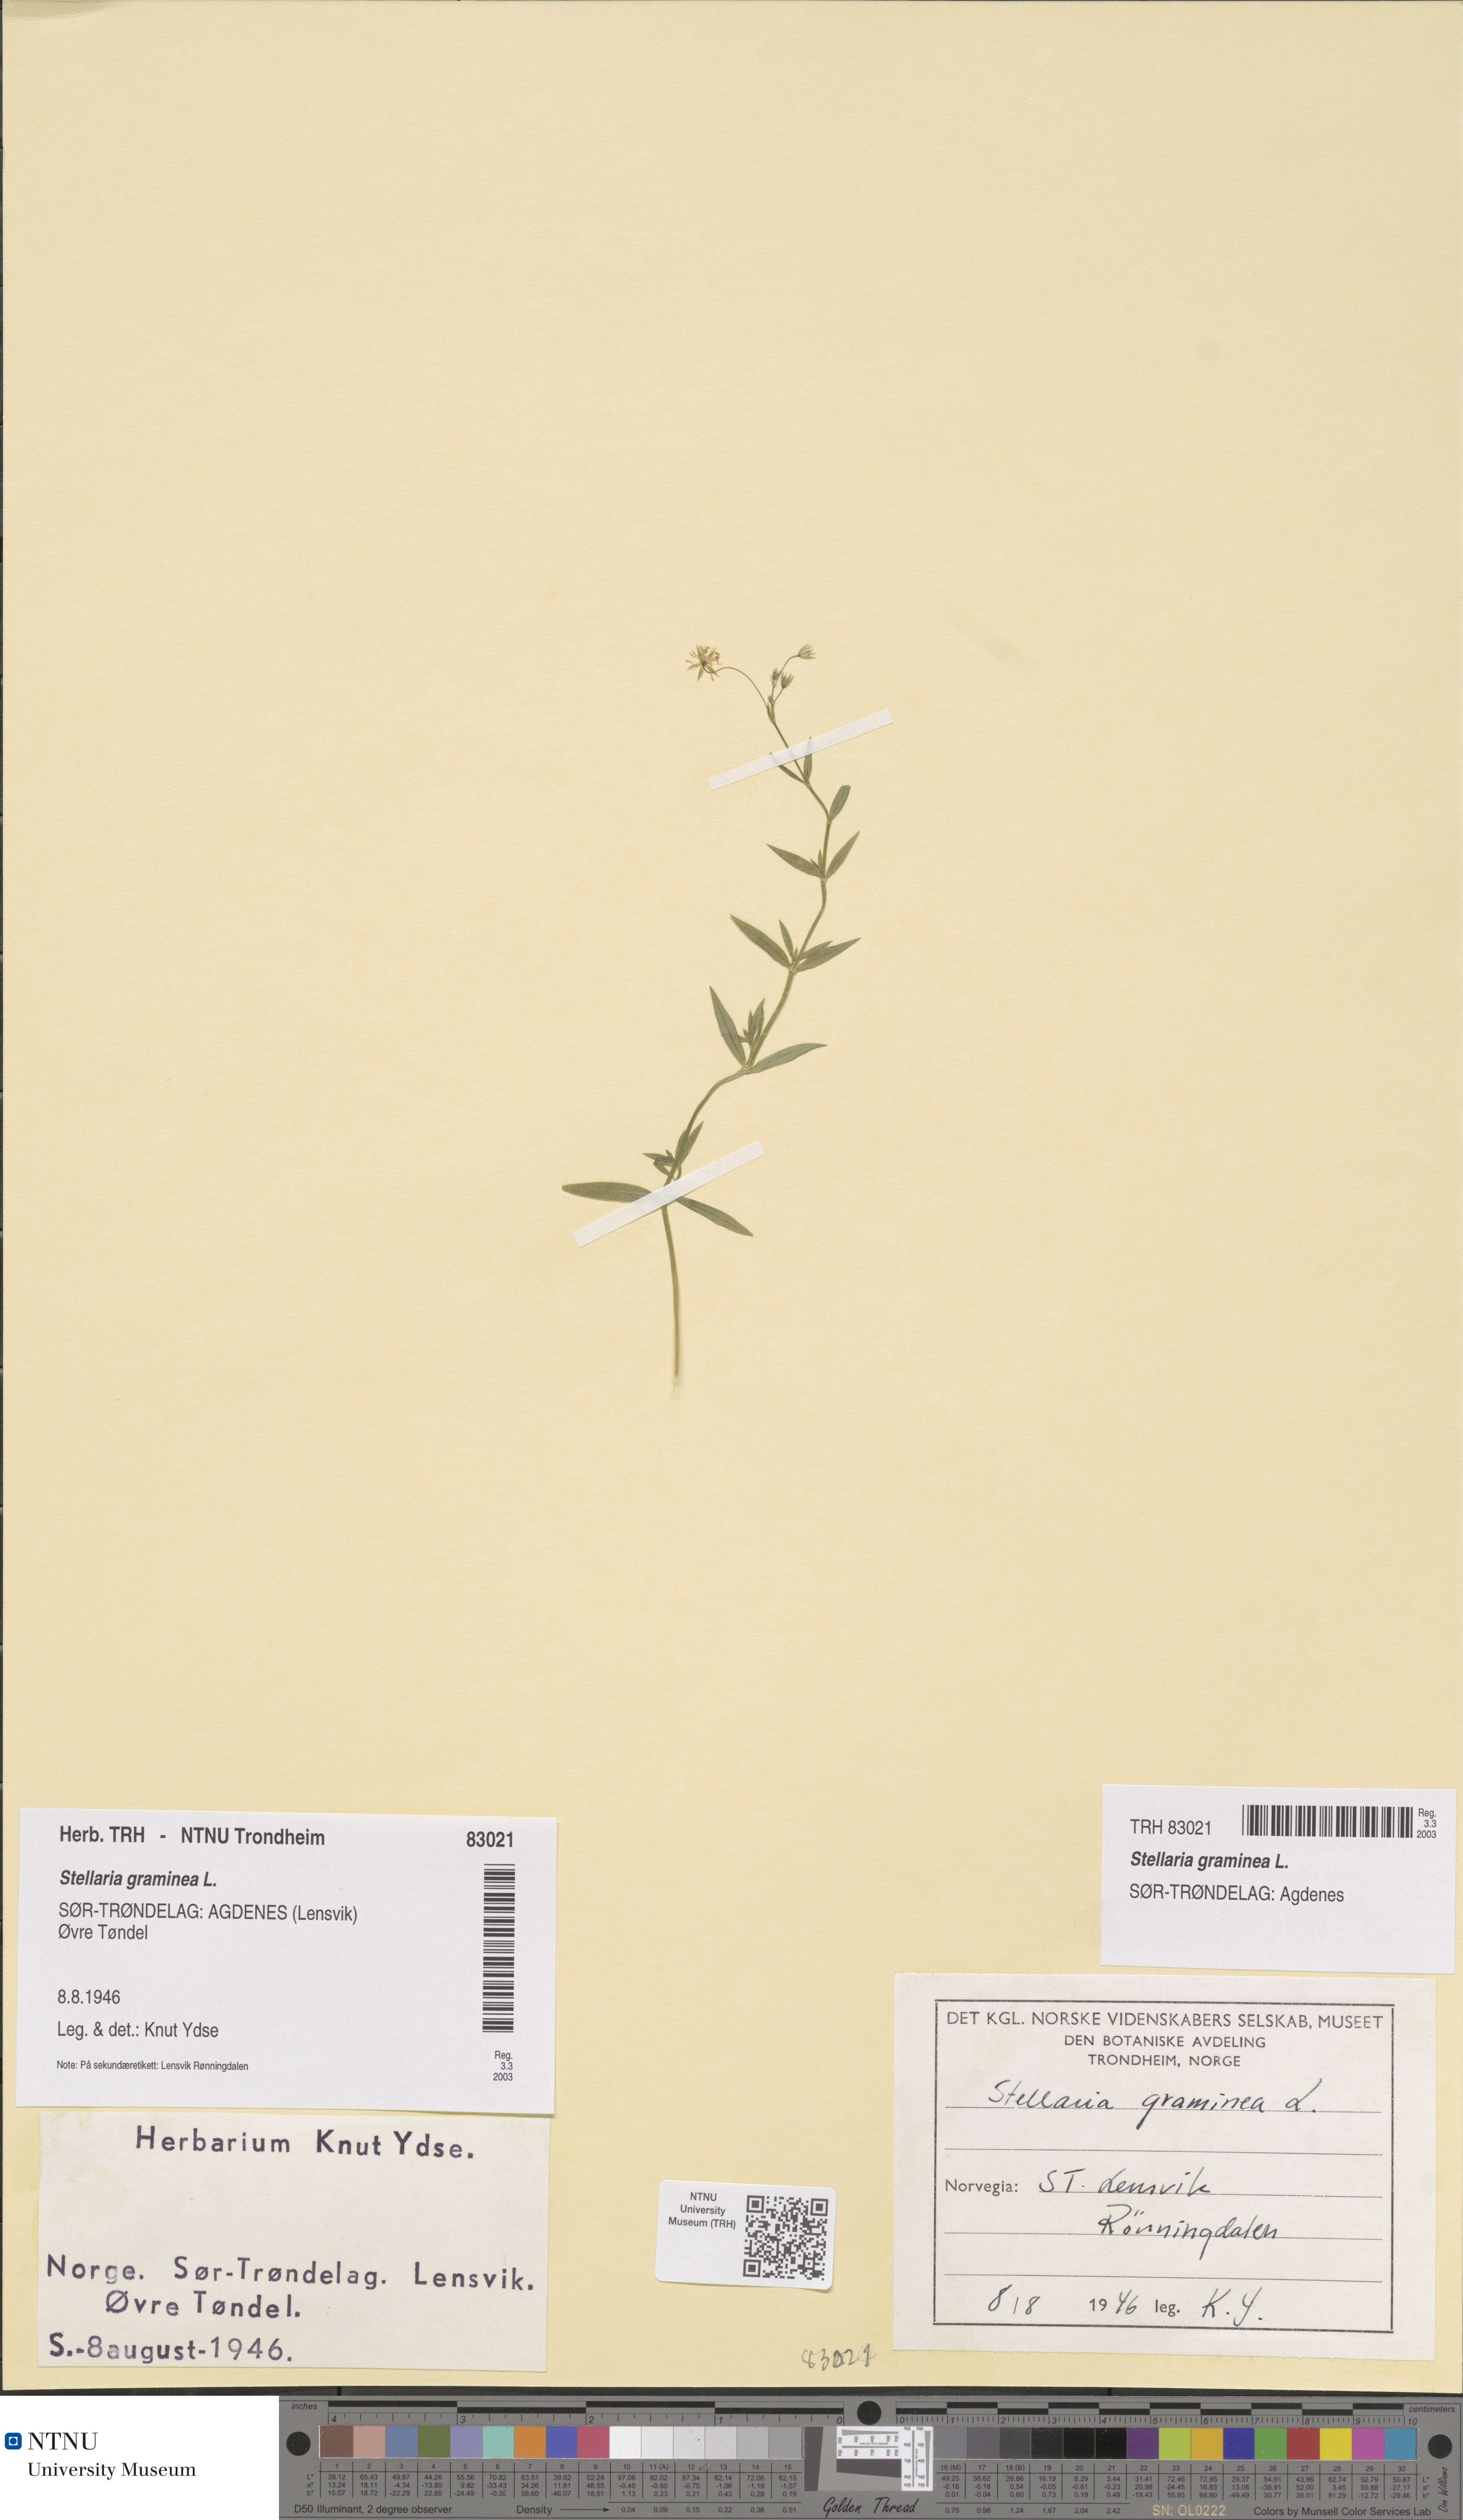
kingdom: Plantae
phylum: Tracheophyta
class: Magnoliopsida
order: Caryophyllales
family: Caryophyllaceae
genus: Stellaria
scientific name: Stellaria graminea
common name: Grass-like starwort
